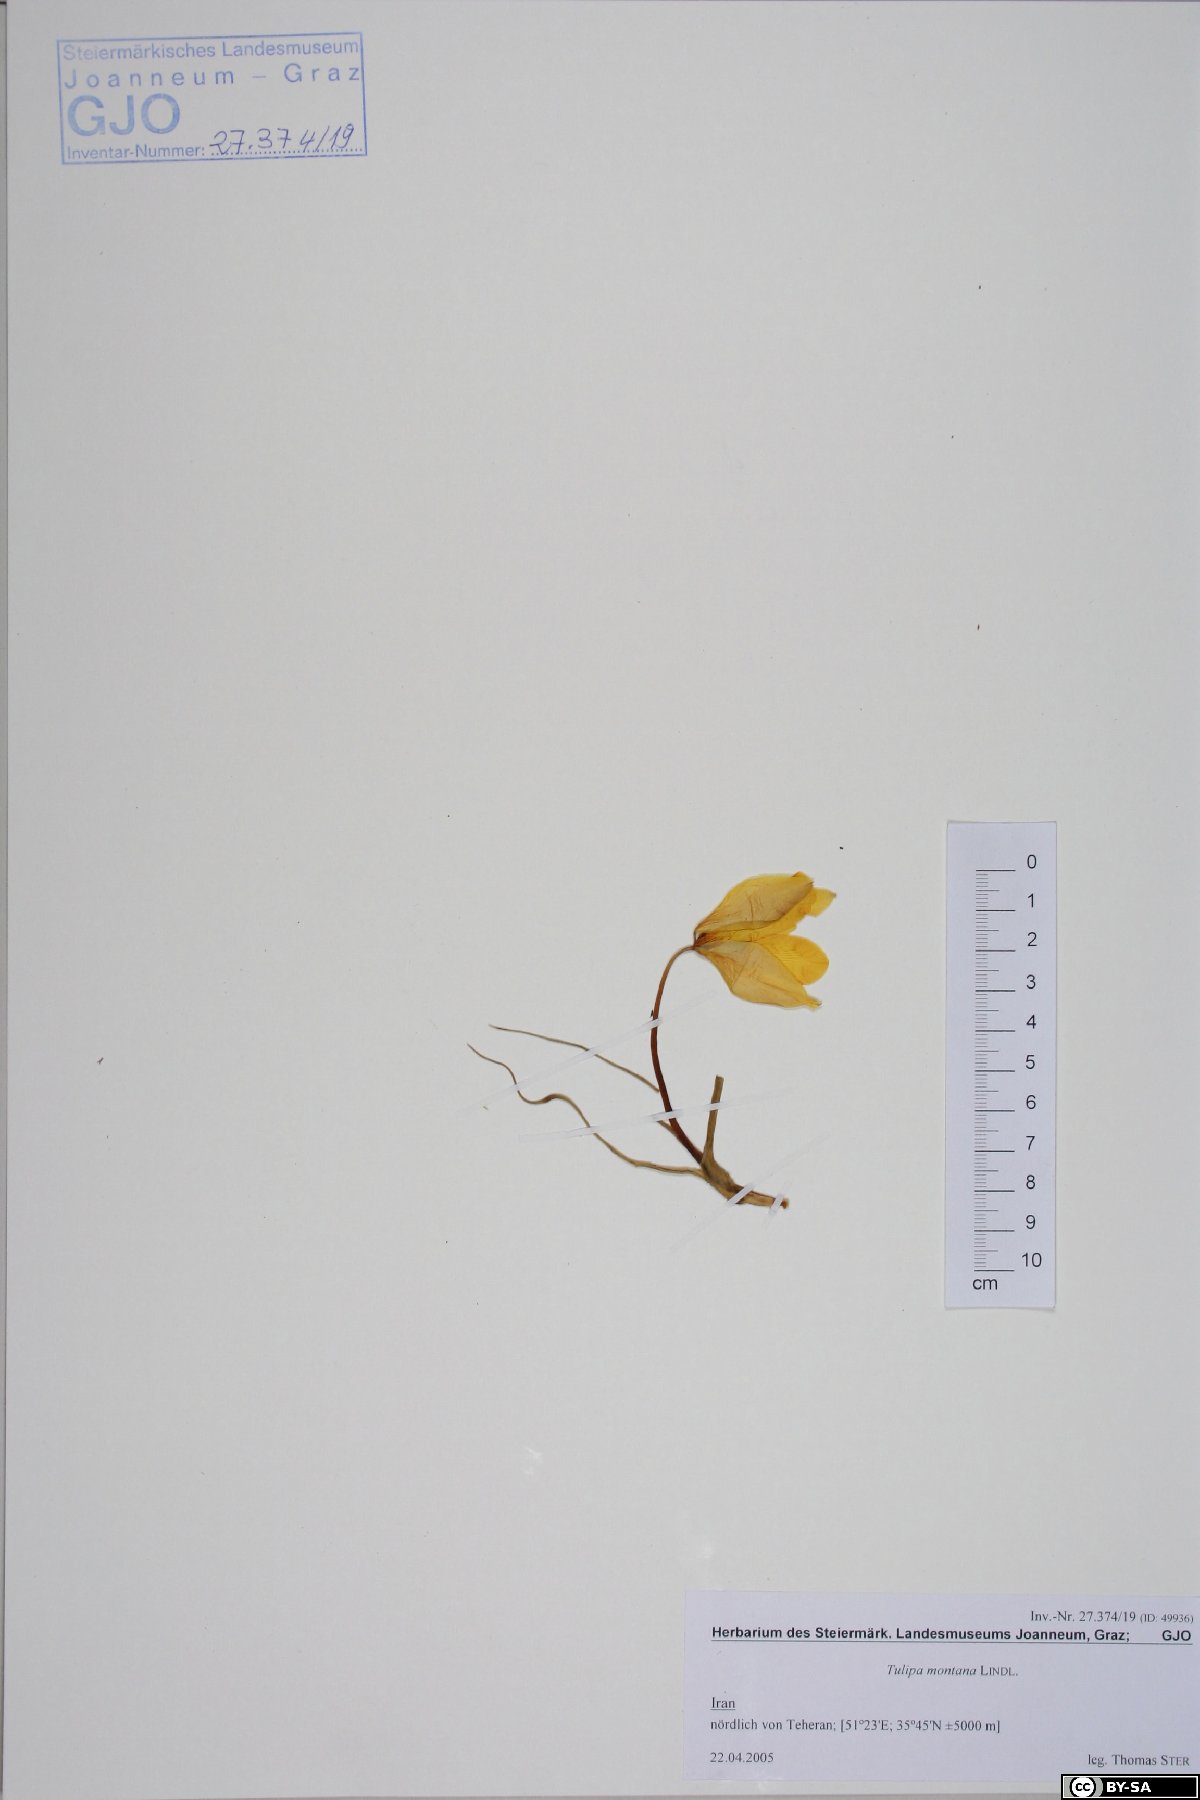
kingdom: Plantae
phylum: Tracheophyta
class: Liliopsida
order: Liliales
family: Liliaceae
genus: Tulipa
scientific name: Tulipa montana
